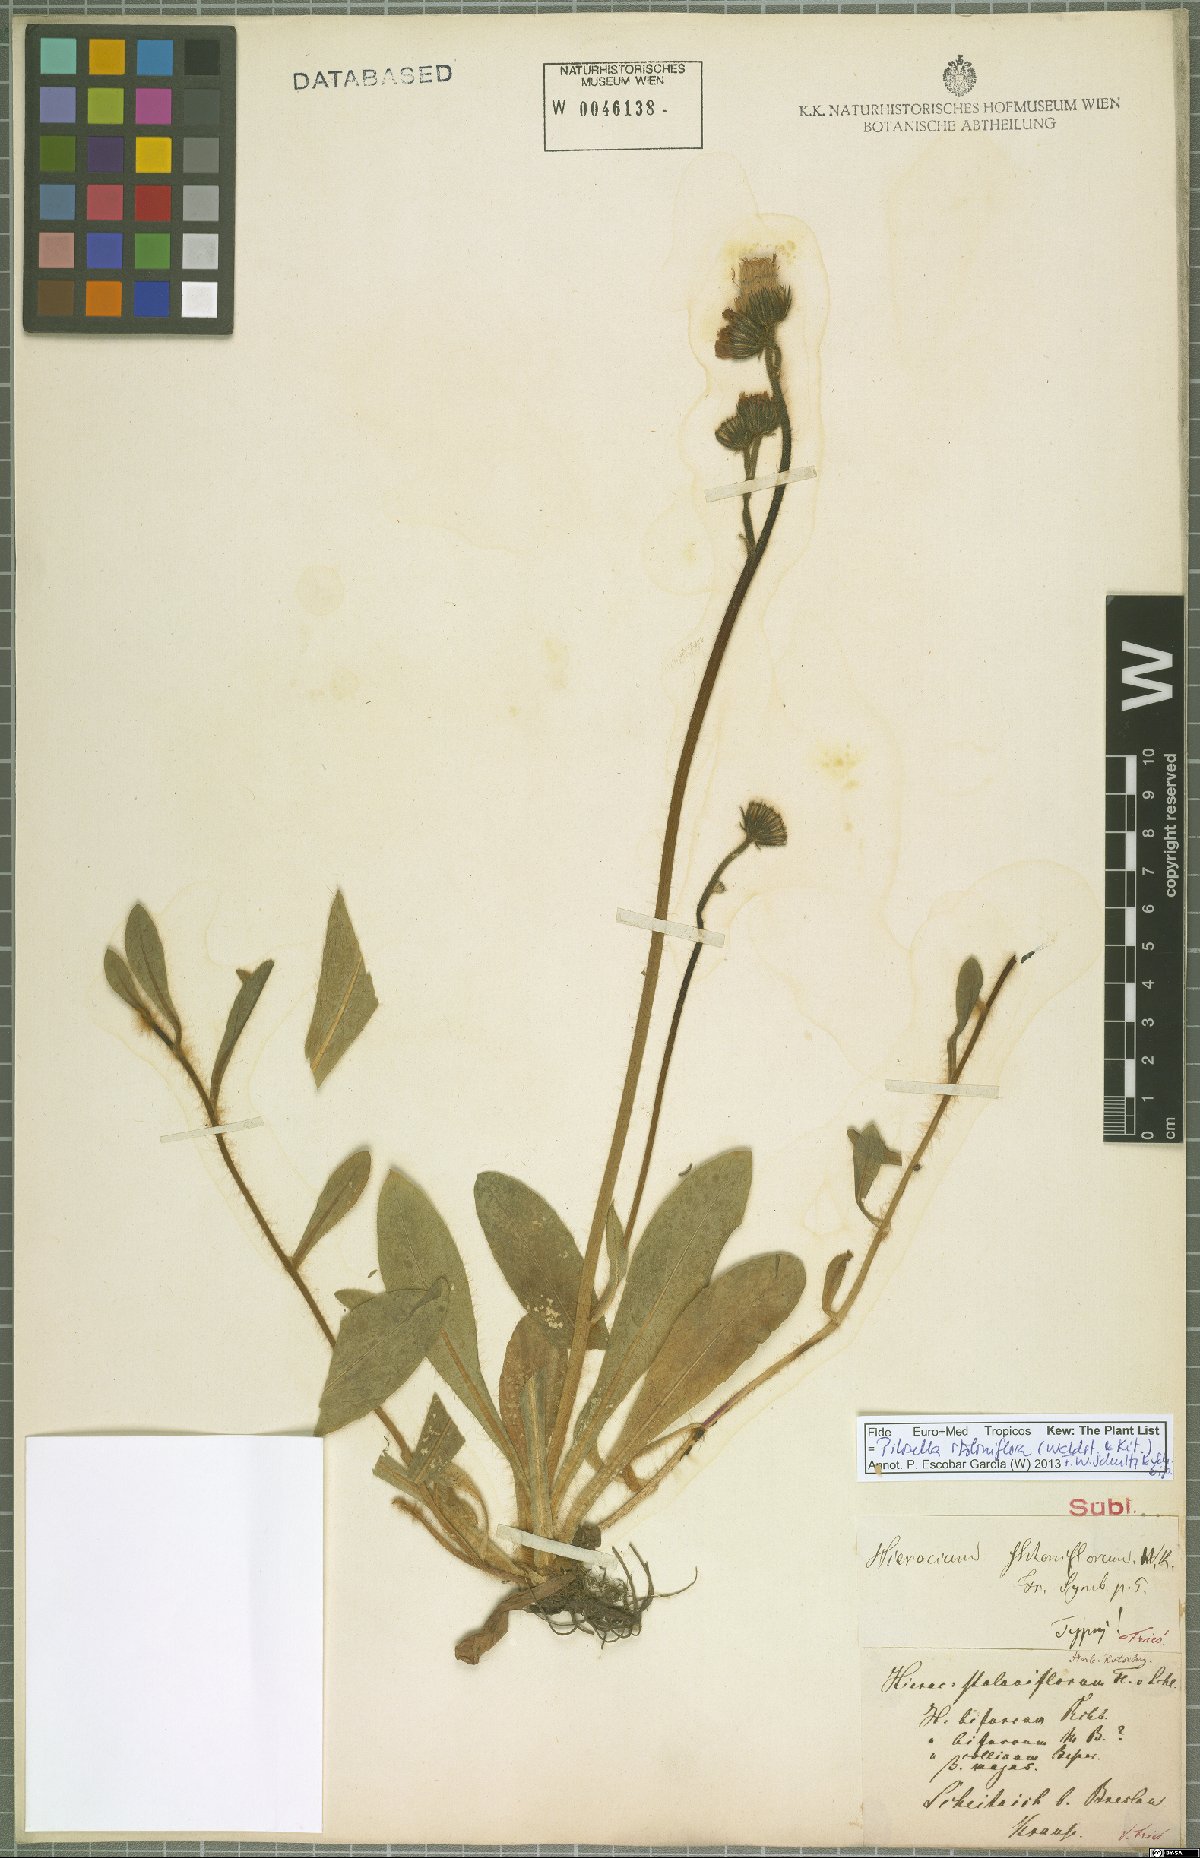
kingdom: Plantae
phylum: Tracheophyta
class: Magnoliopsida
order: Asterales
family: Asteraceae
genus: Pilosella
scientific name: Pilosella stoloniflora
